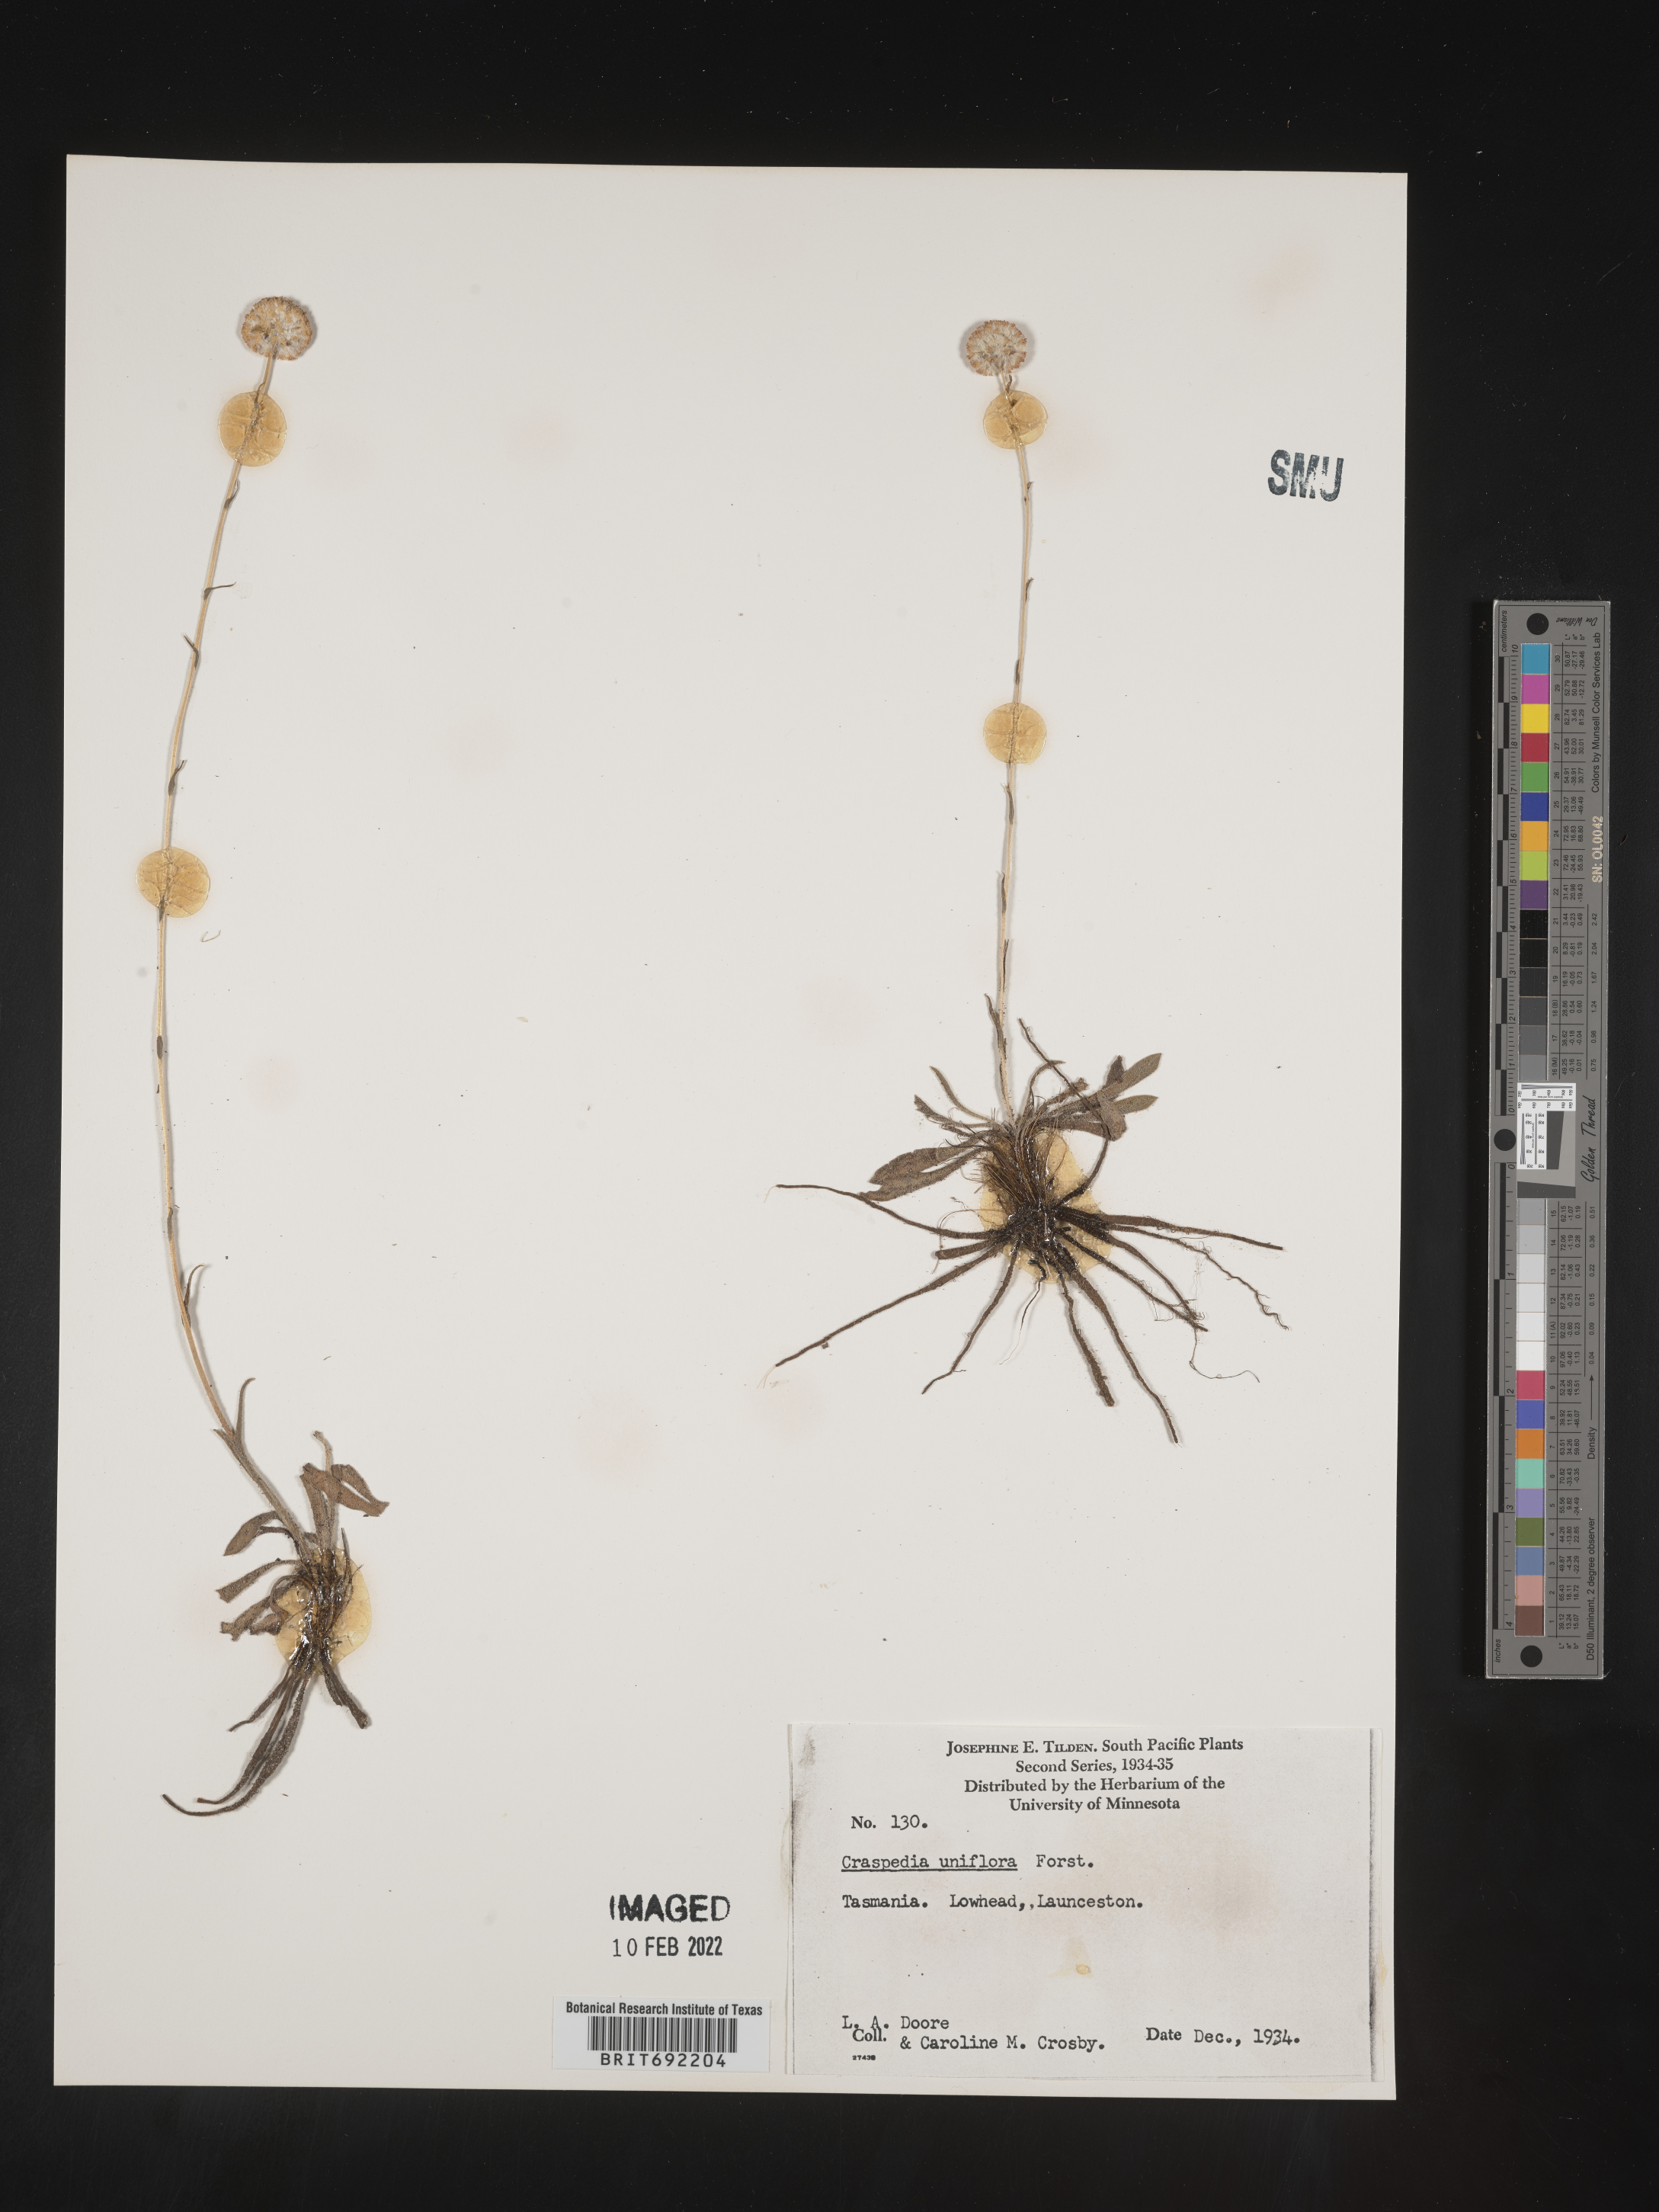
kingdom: Plantae
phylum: Tracheophyta
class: Magnoliopsida
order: Asterales
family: Asteraceae
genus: Craspedia
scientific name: Craspedia
